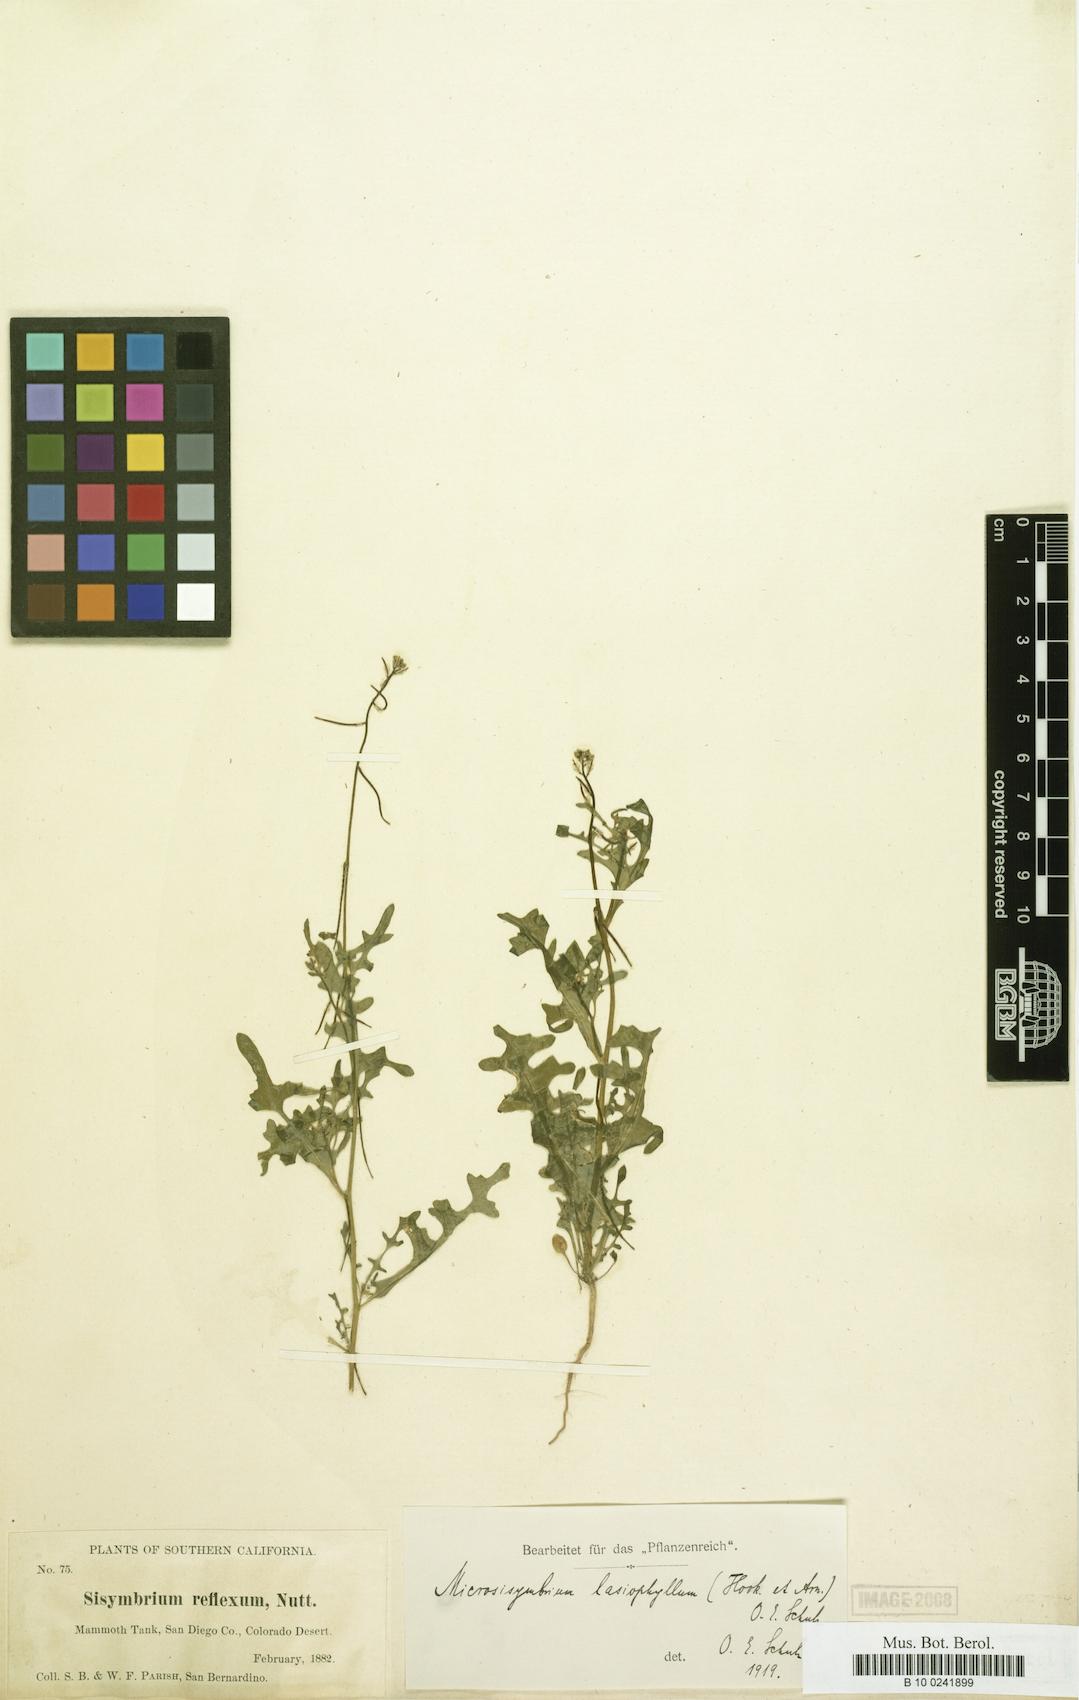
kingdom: Plantae
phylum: Tracheophyta
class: Magnoliopsida
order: Brassicales
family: Brassicaceae
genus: Streptanthus
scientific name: Streptanthus lasiophyllus
